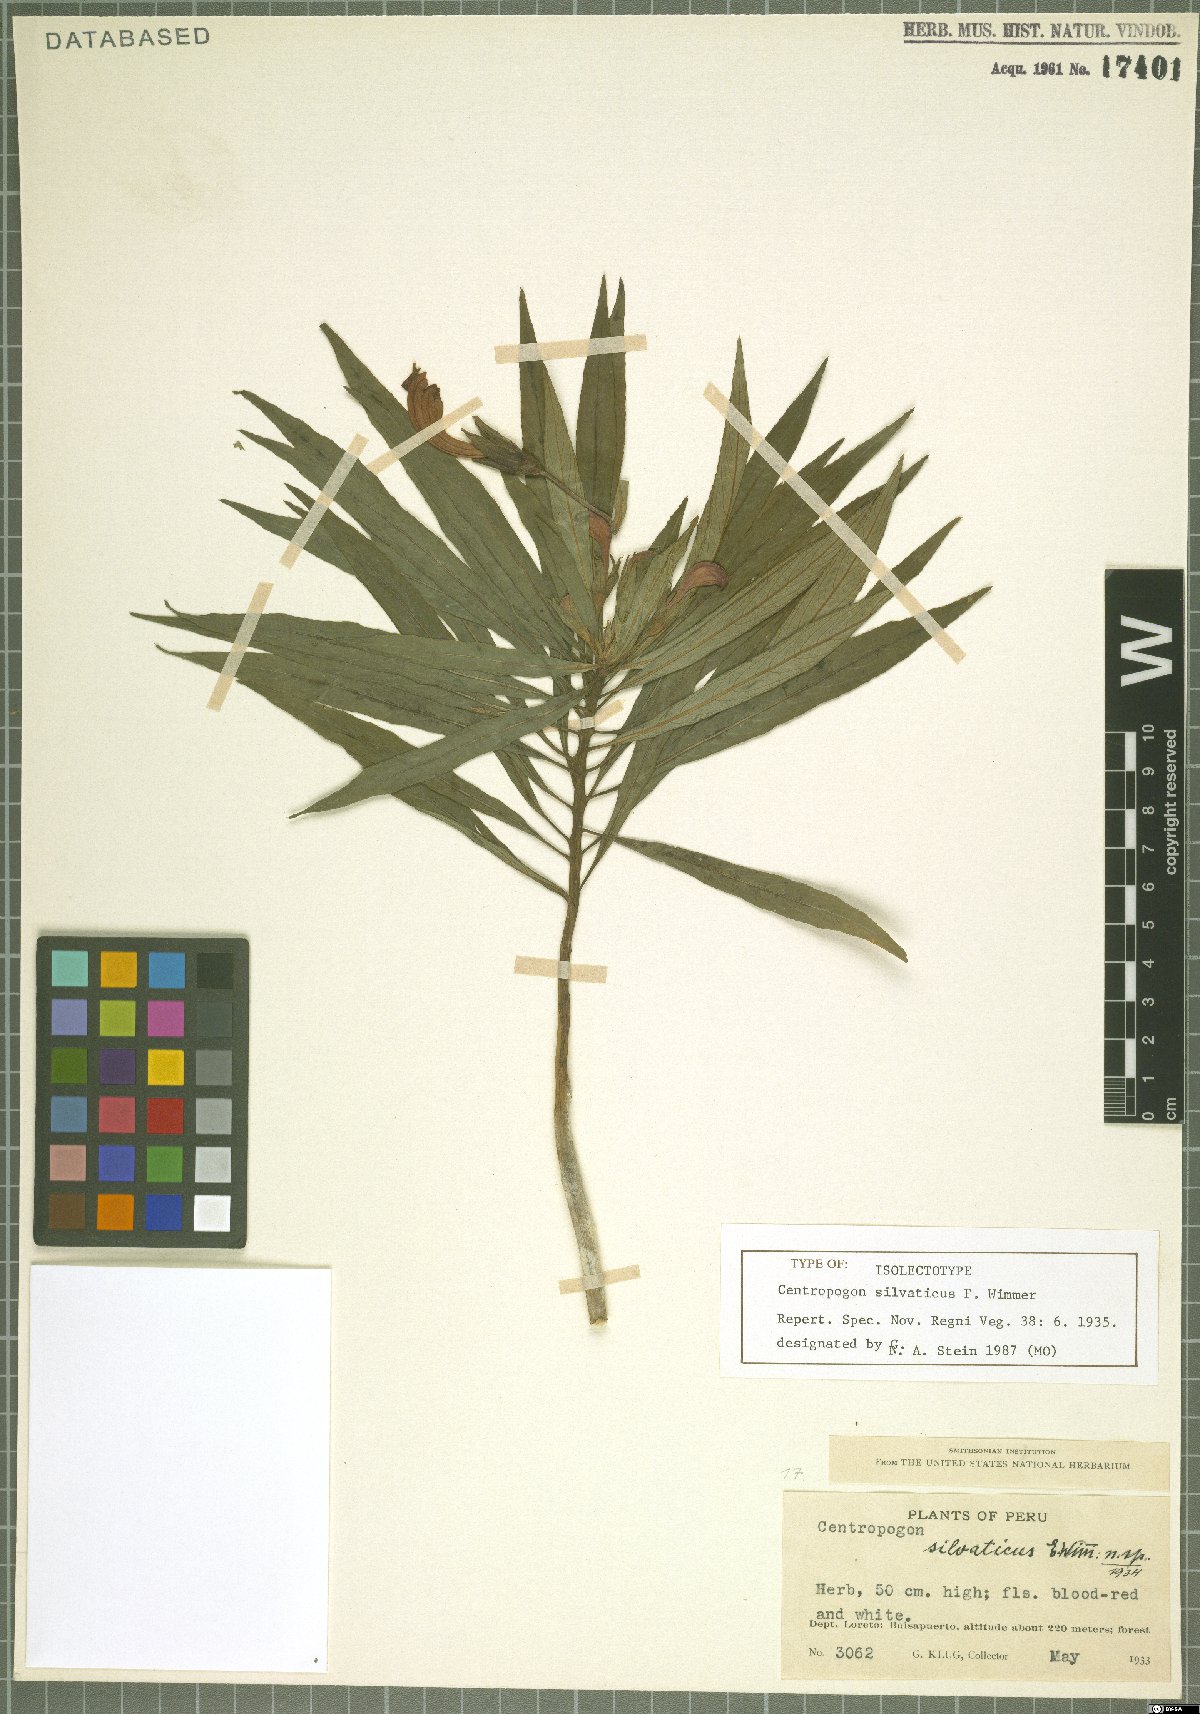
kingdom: Plantae
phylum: Tracheophyta
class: Magnoliopsida
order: Asterales
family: Campanulaceae
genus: Centropogon
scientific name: Centropogon silvaticus
